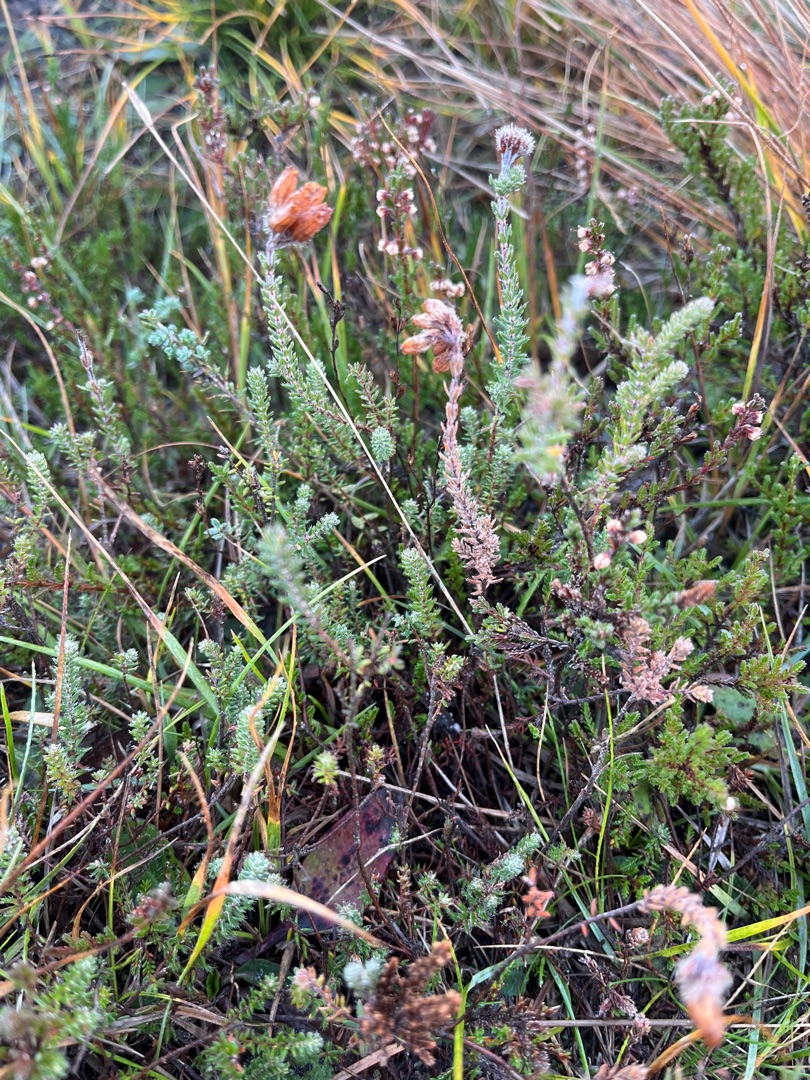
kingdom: Plantae
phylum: Tracheophyta
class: Magnoliopsida
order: Ericales
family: Ericaceae
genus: Erica
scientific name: Erica tetralix
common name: Klokkelyng
